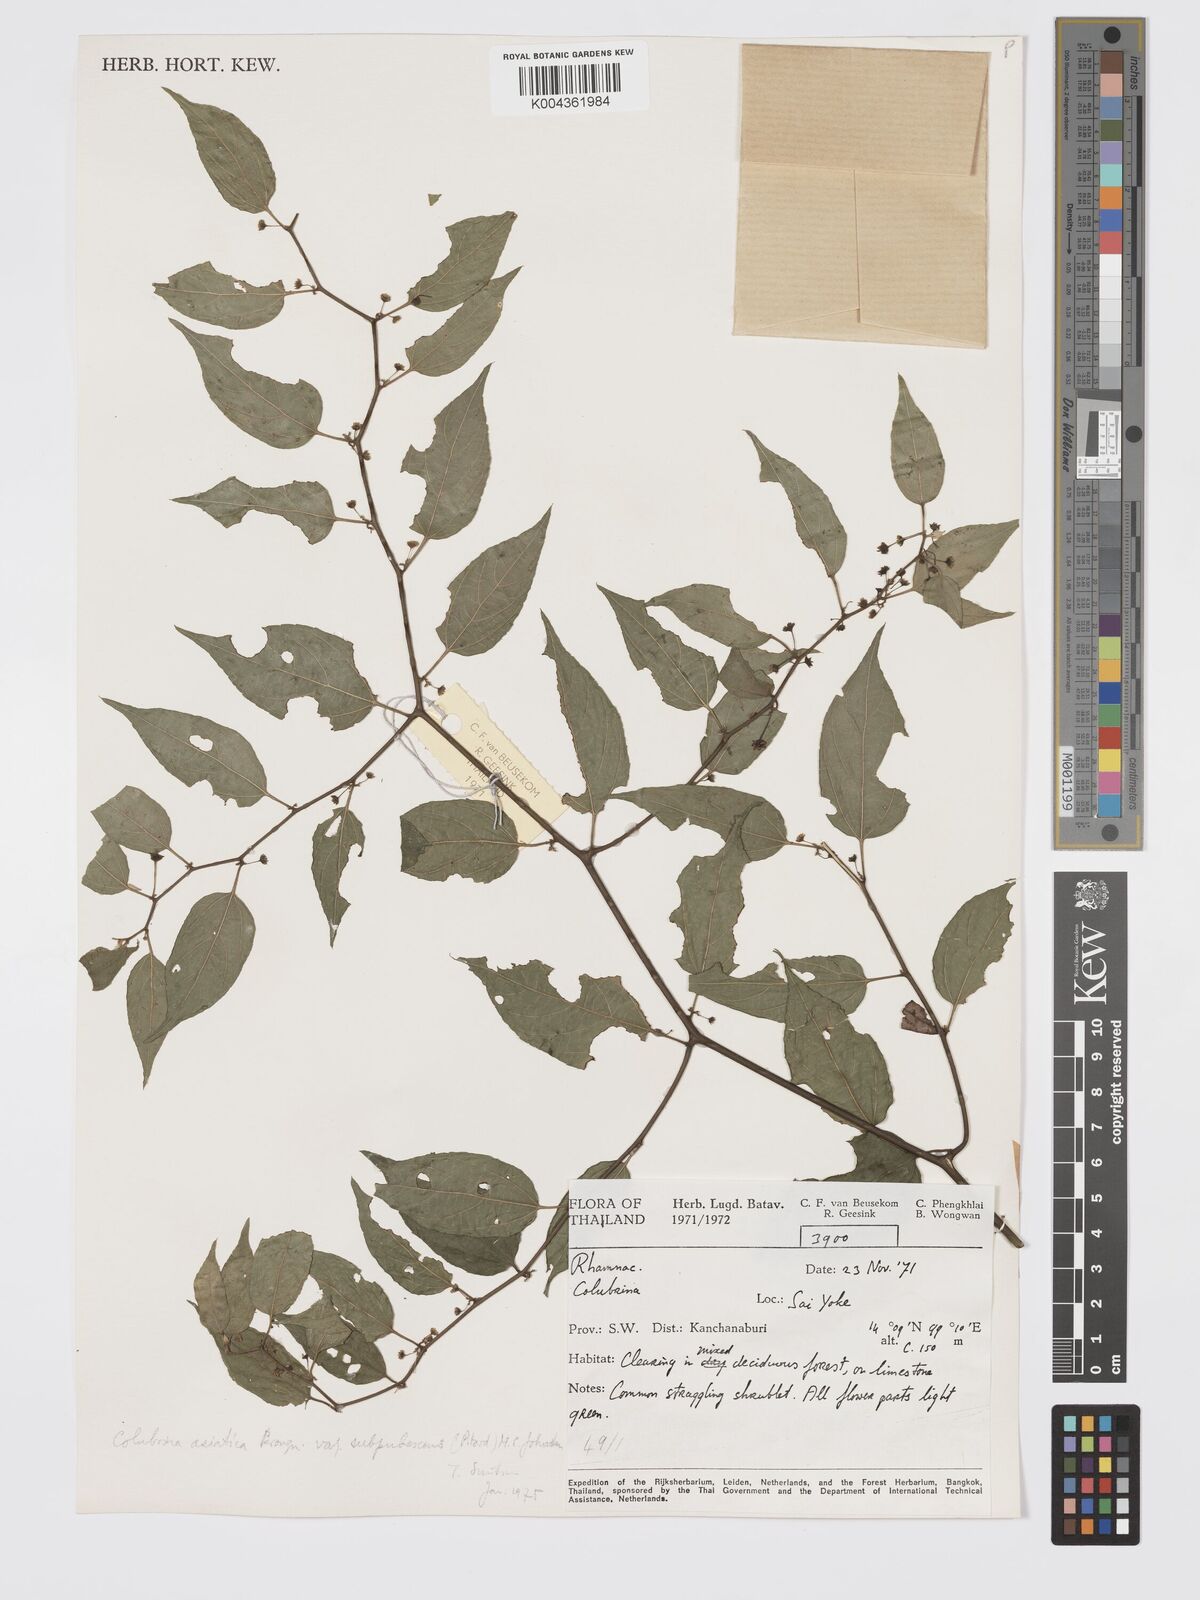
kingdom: Plantae
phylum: Tracheophyta
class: Magnoliopsida
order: Rosales
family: Rhamnaceae
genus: Colubrina
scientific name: Colubrina javanica
